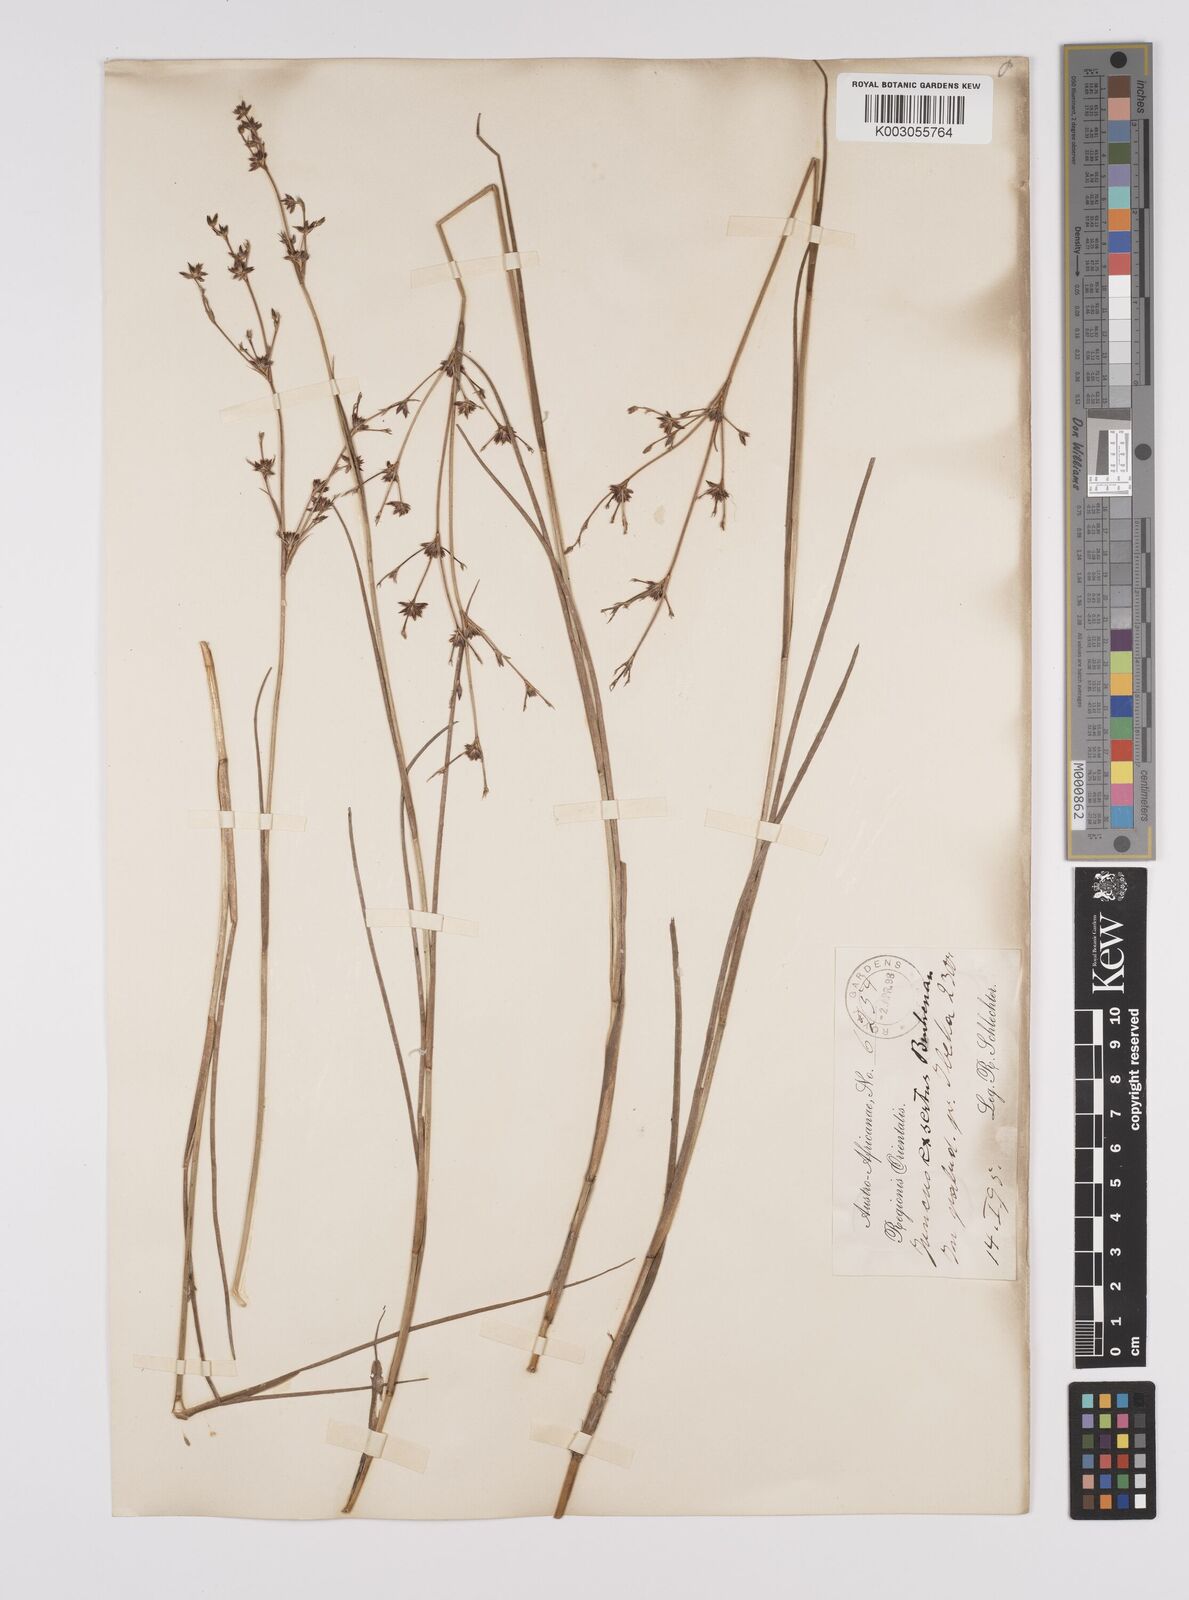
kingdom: Plantae
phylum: Tracheophyta
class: Liliopsida
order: Poales
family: Juncaceae
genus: Juncus
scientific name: Juncus exsertus
